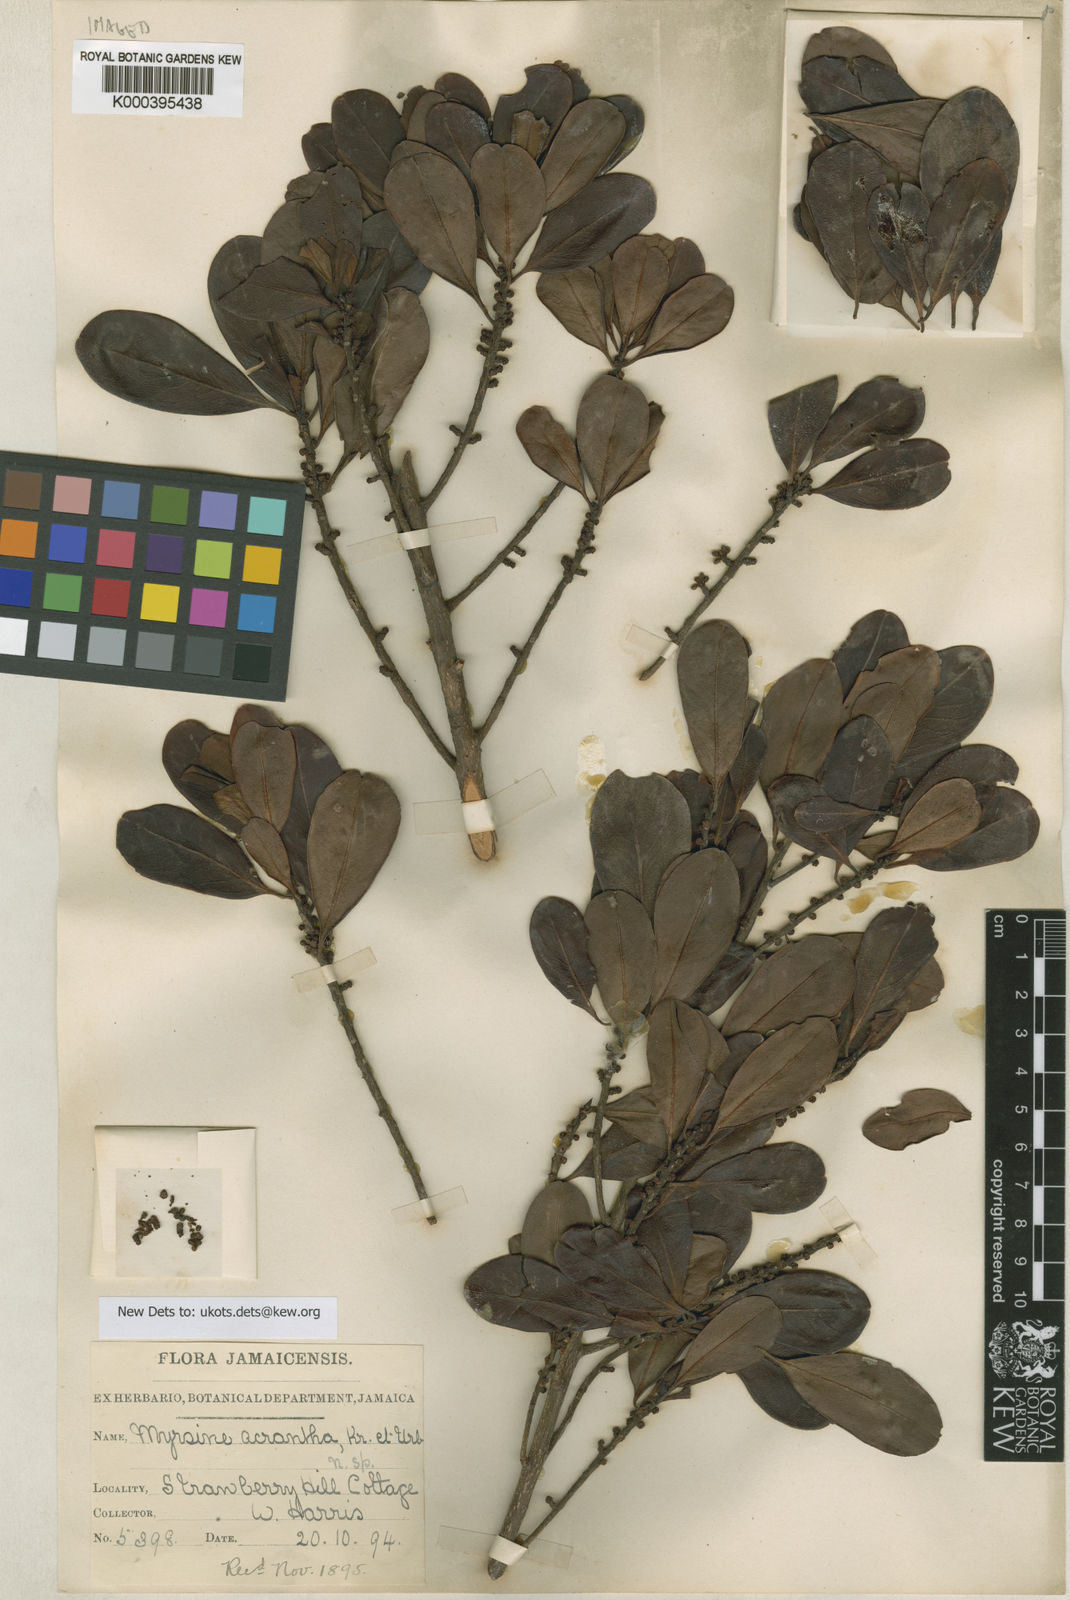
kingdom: Plantae
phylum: Tracheophyta
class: Magnoliopsida
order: Ericales
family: Primulaceae
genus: Myrsine
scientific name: Myrsine acrantha
